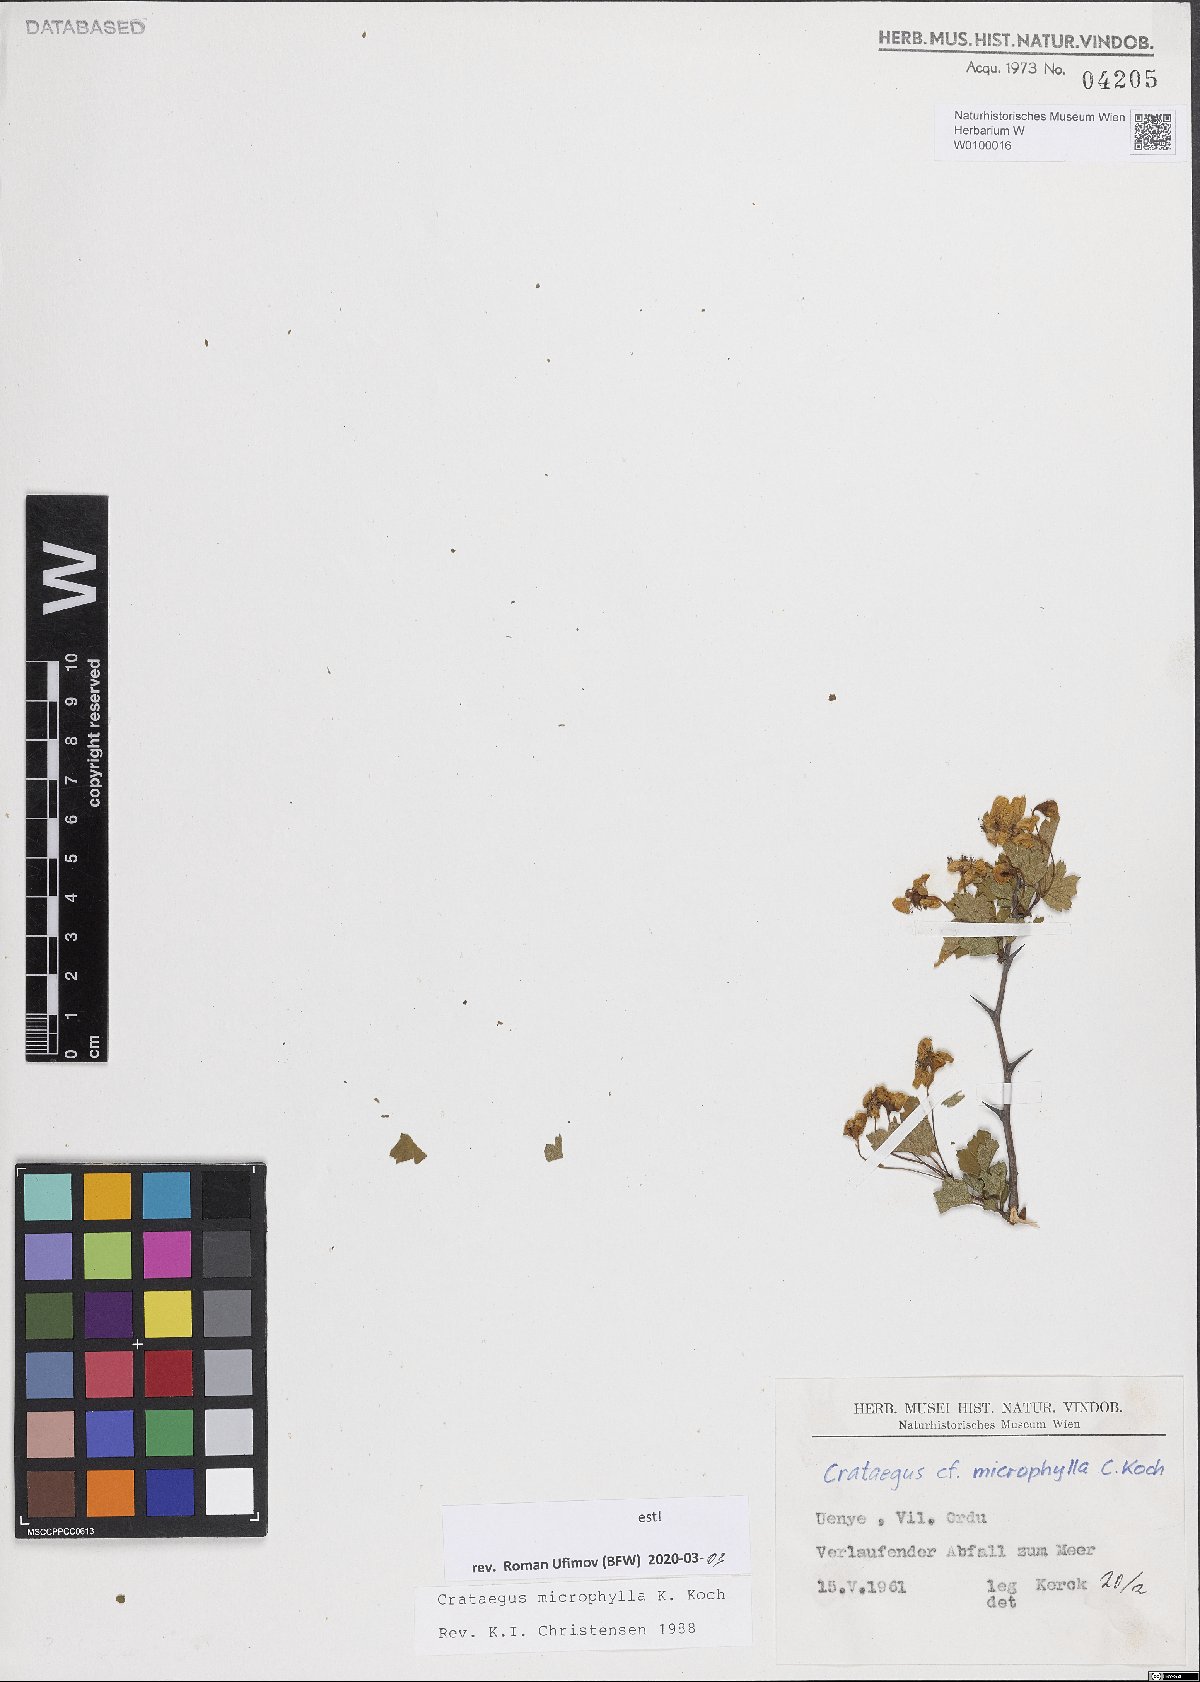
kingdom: Plantae
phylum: Tracheophyta
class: Magnoliopsida
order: Rosales
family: Rosaceae
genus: Crataegus
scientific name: Crataegus microphylla
